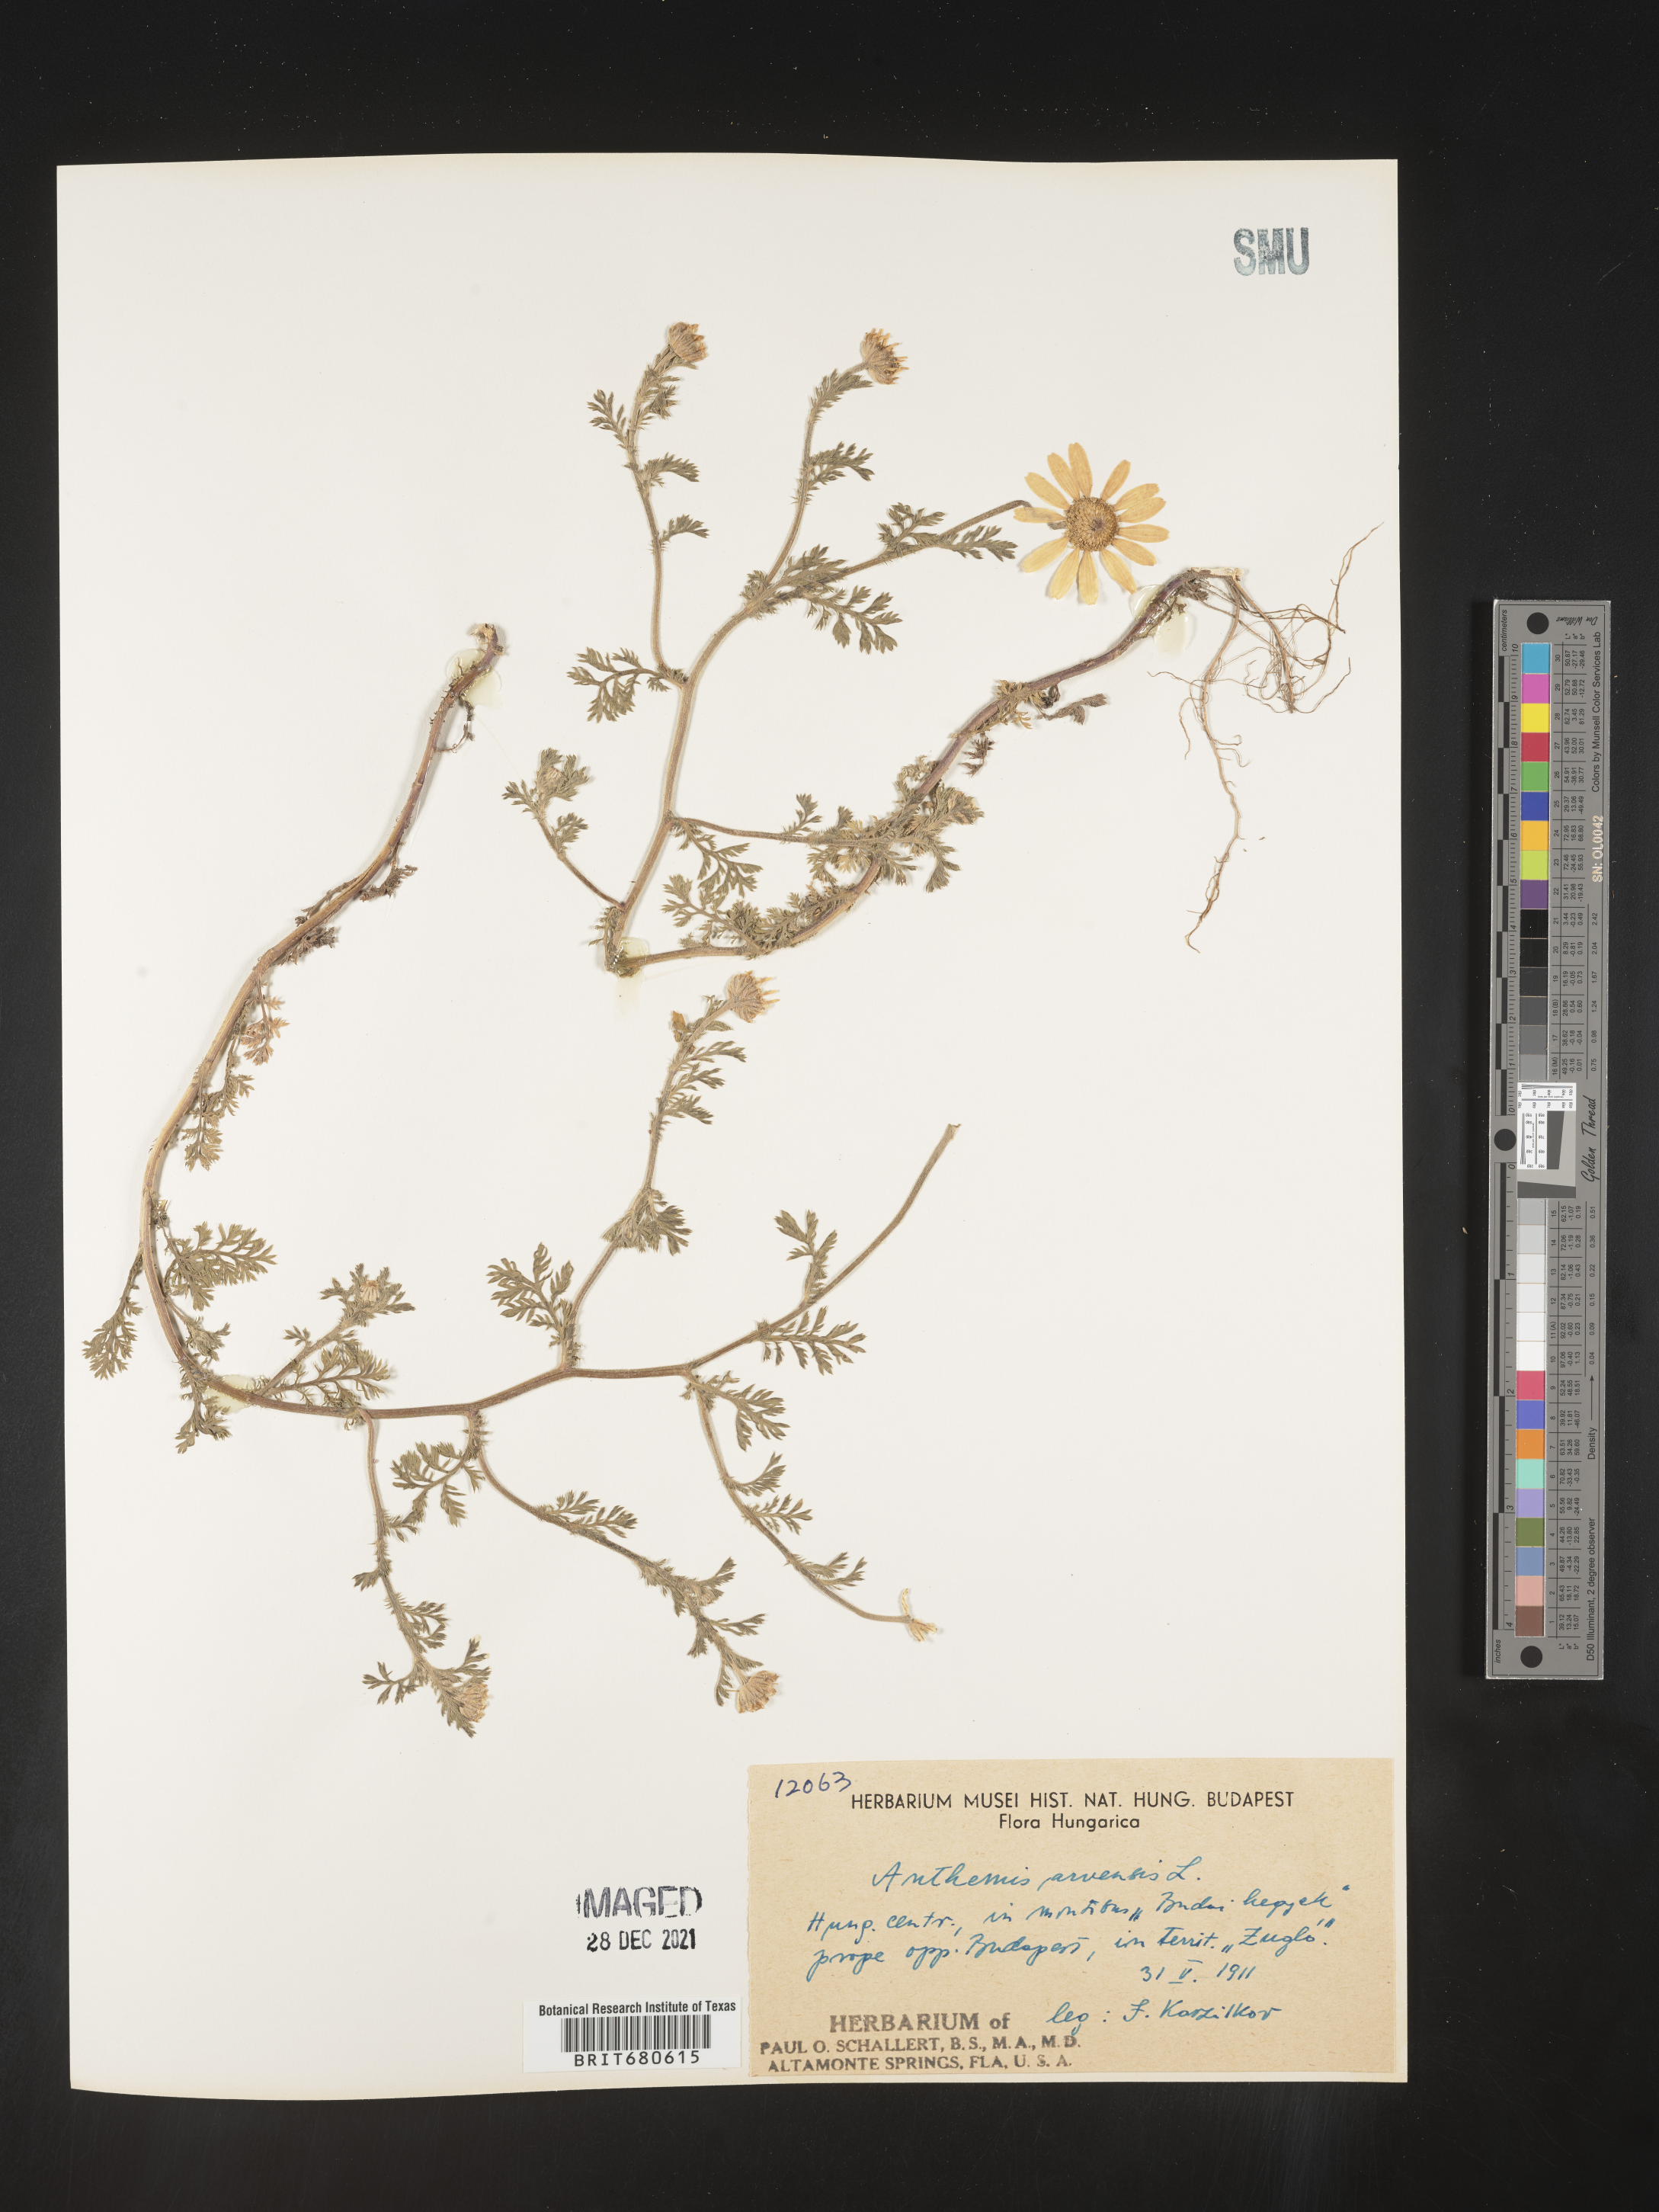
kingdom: Plantae
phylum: Tracheophyta
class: Magnoliopsida
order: Asterales
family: Asteraceae
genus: Anthemis
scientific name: Anthemis
